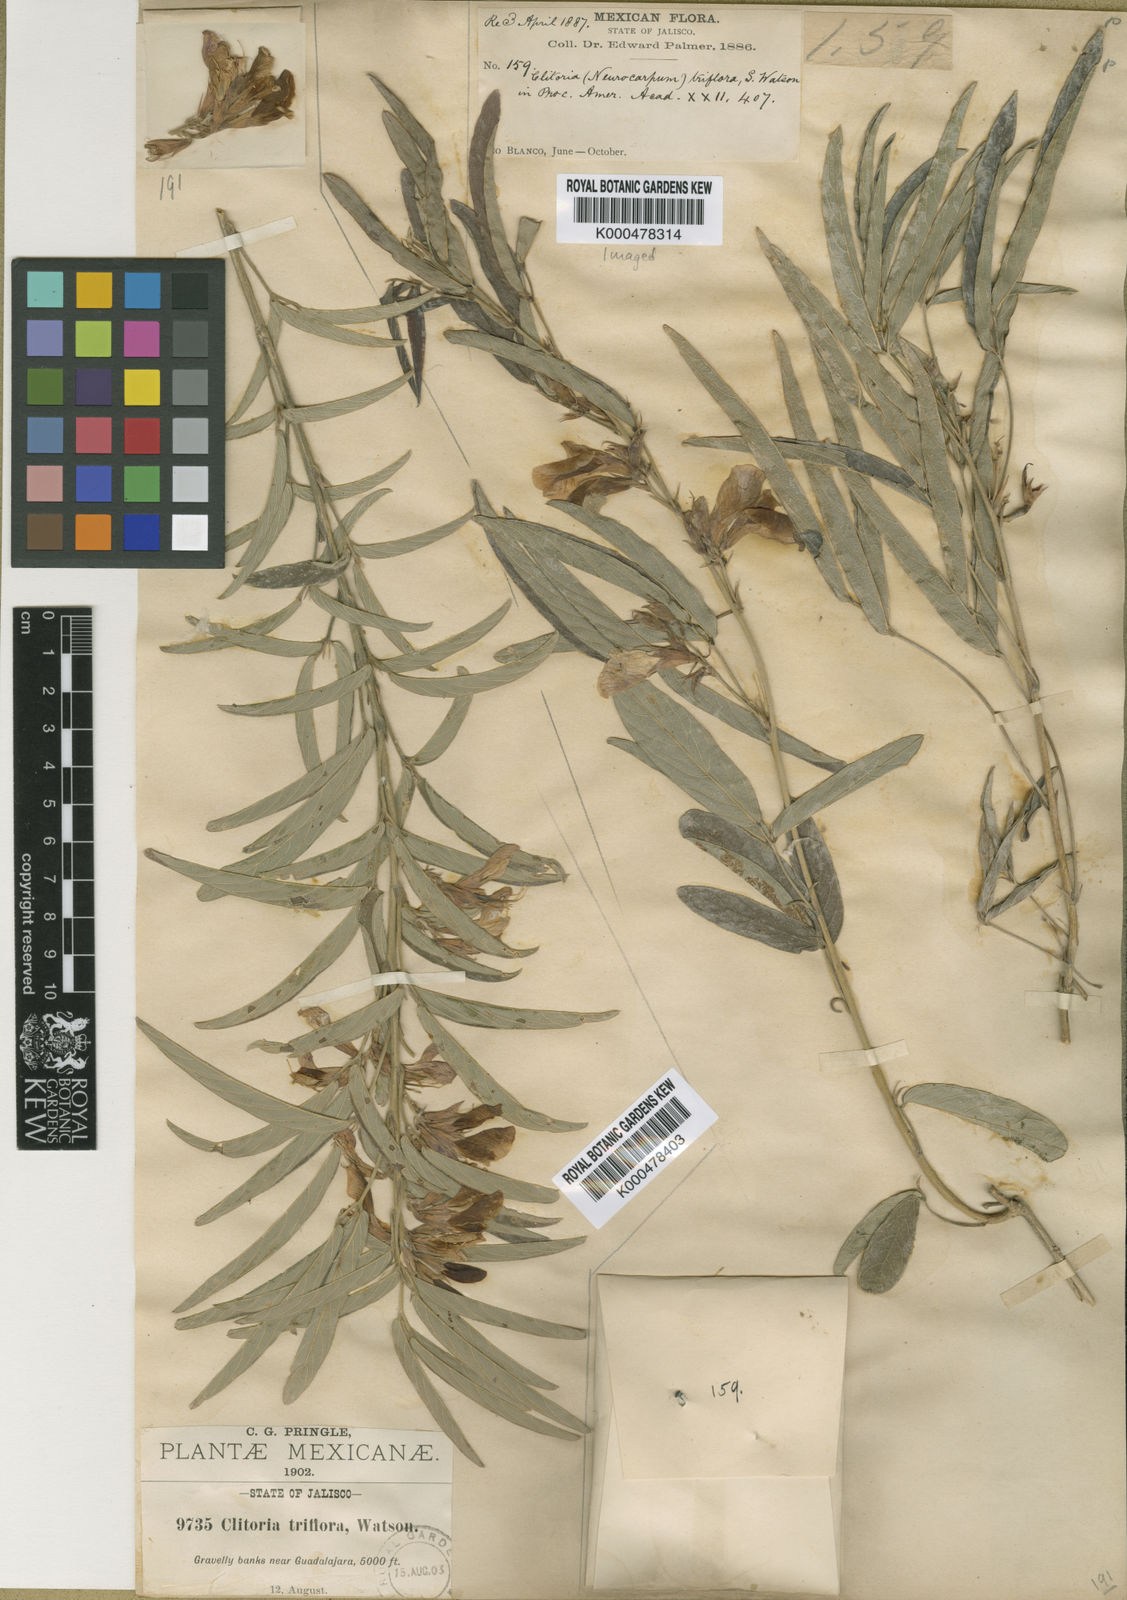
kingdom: Plantae
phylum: Tracheophyta
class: Magnoliopsida
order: Fabales
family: Fabaceae
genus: Clitoria
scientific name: Clitoria triflora
